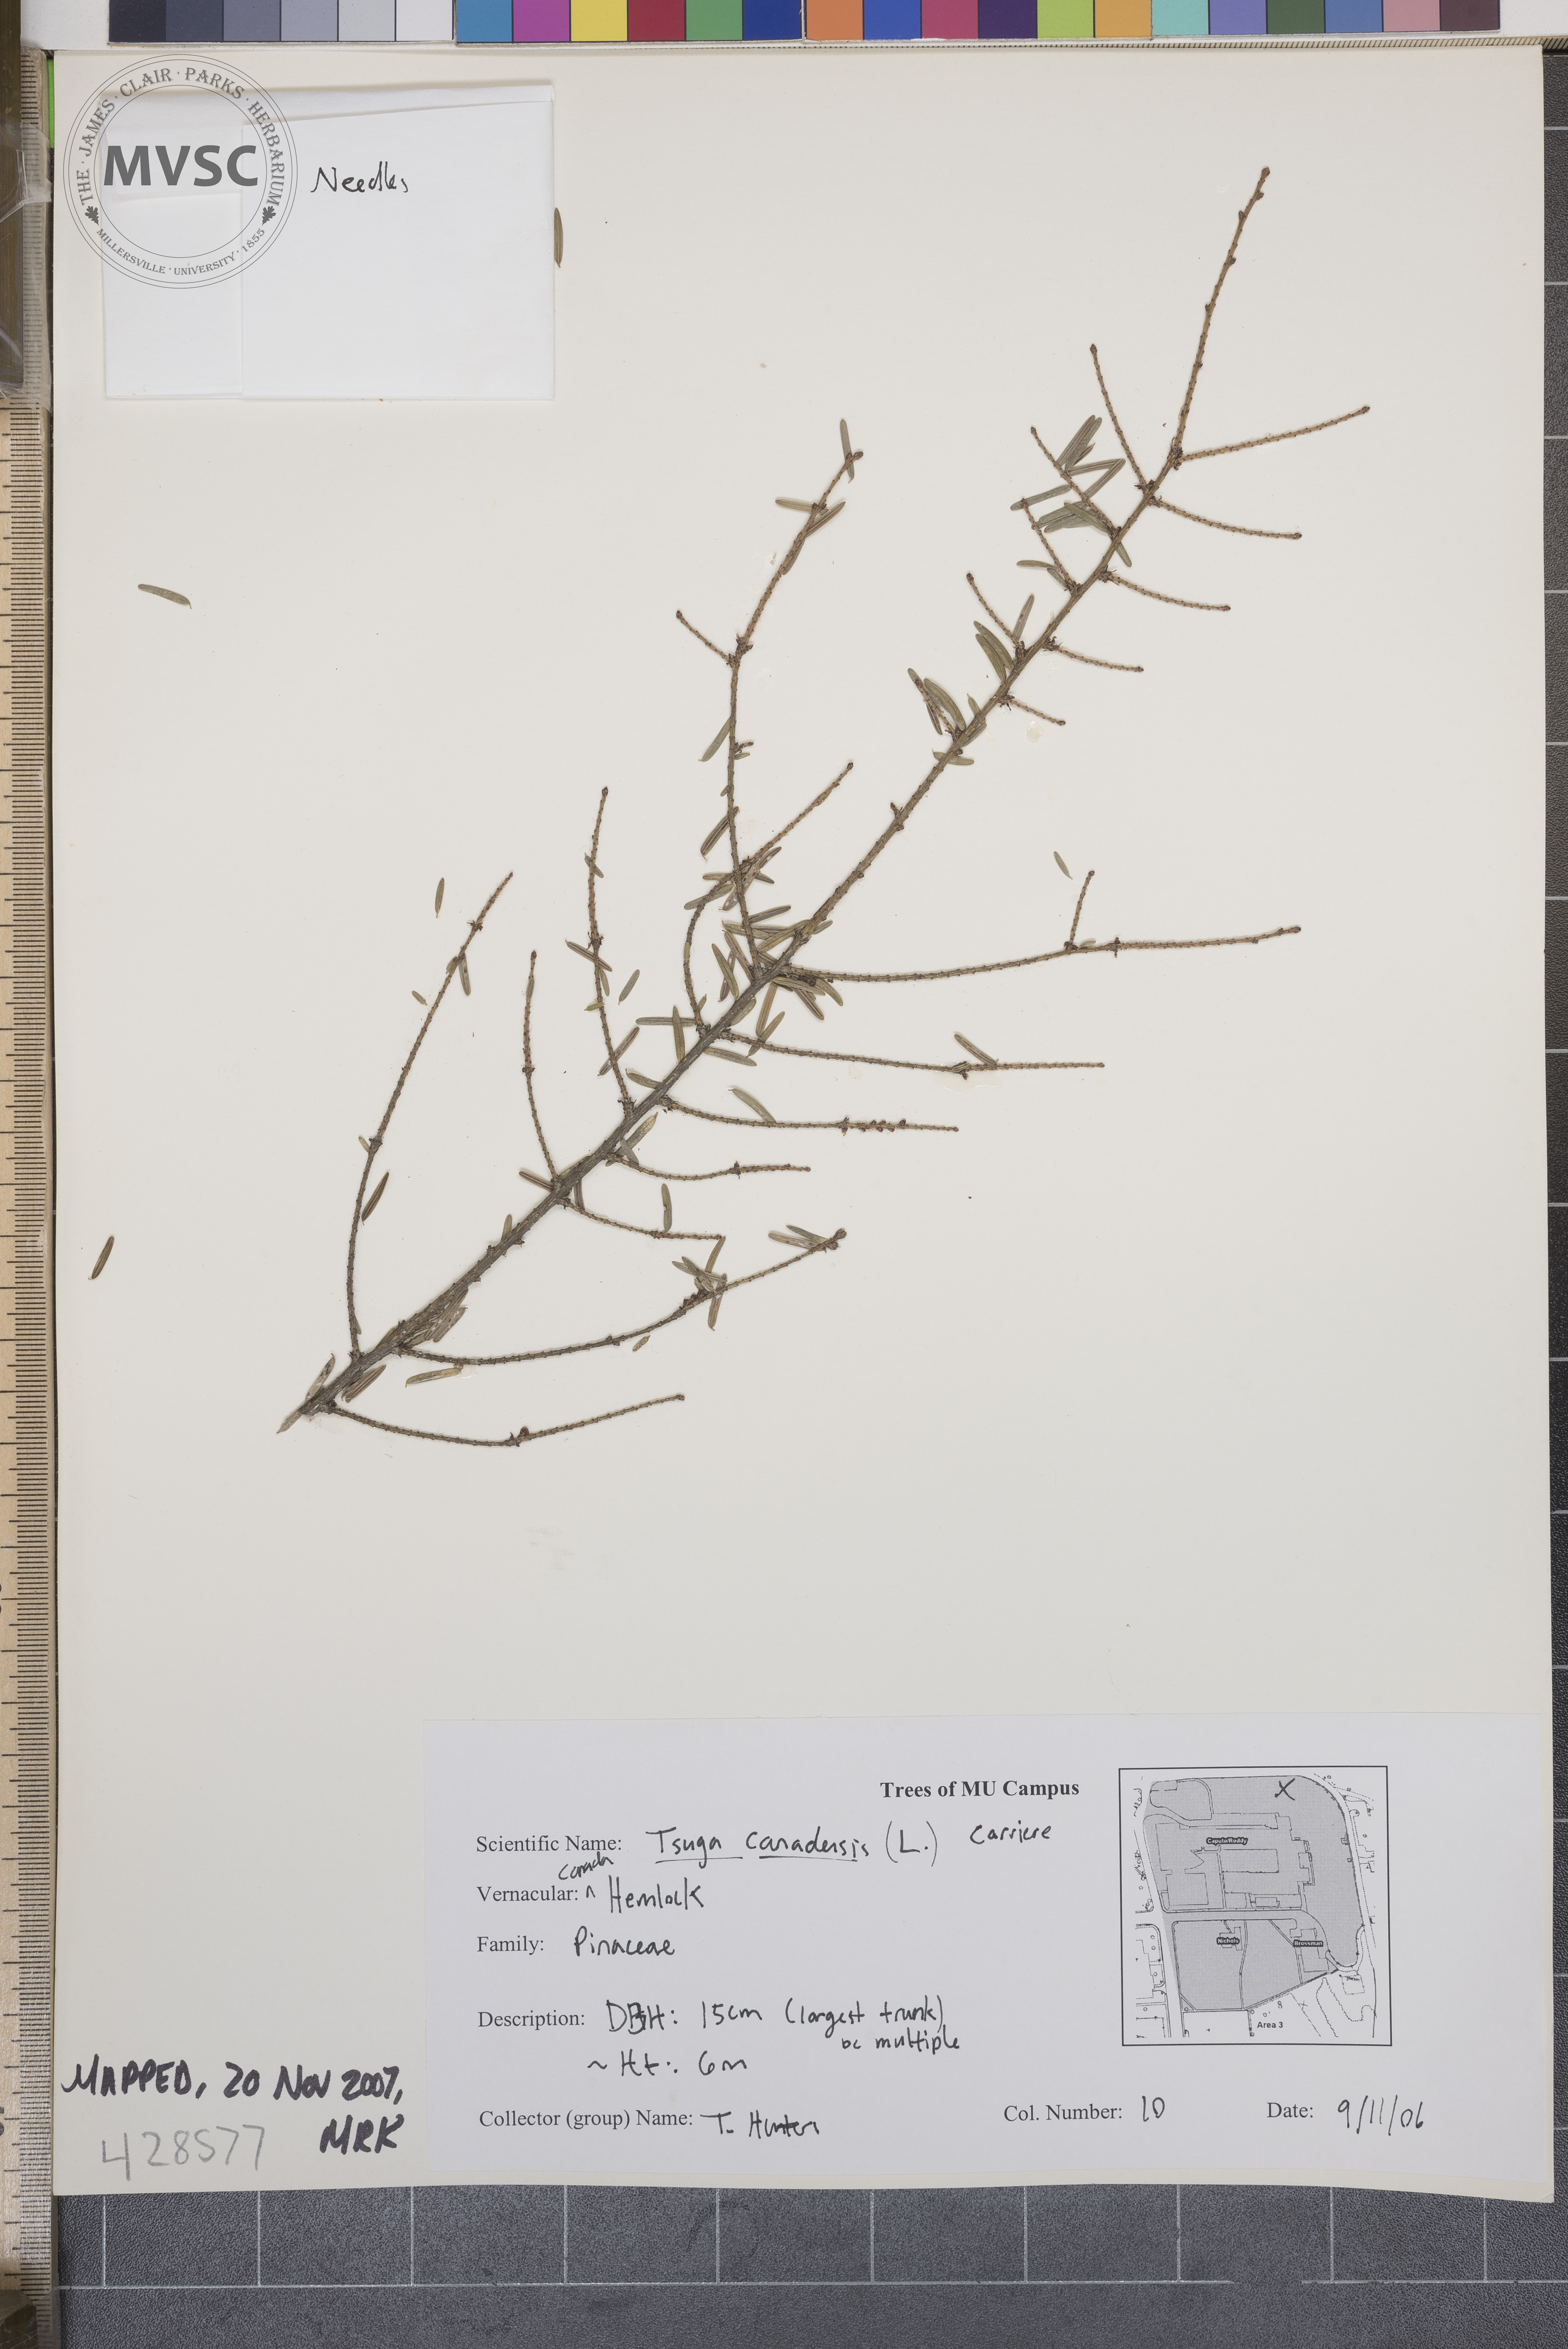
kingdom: Plantae
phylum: Tracheophyta
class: Pinopsida
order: Pinales
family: Pinaceae
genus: Tsuga
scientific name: Tsuga canadensis
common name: Canadian Hemlock
